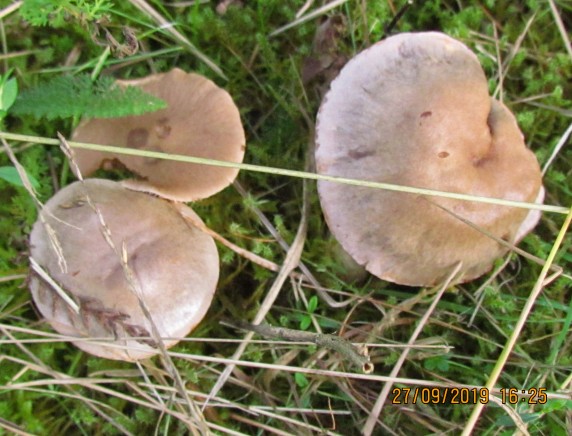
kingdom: Fungi
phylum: Basidiomycota
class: Agaricomycetes
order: Agaricales
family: Cortinariaceae
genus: Cortinarius
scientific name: Cortinarius
